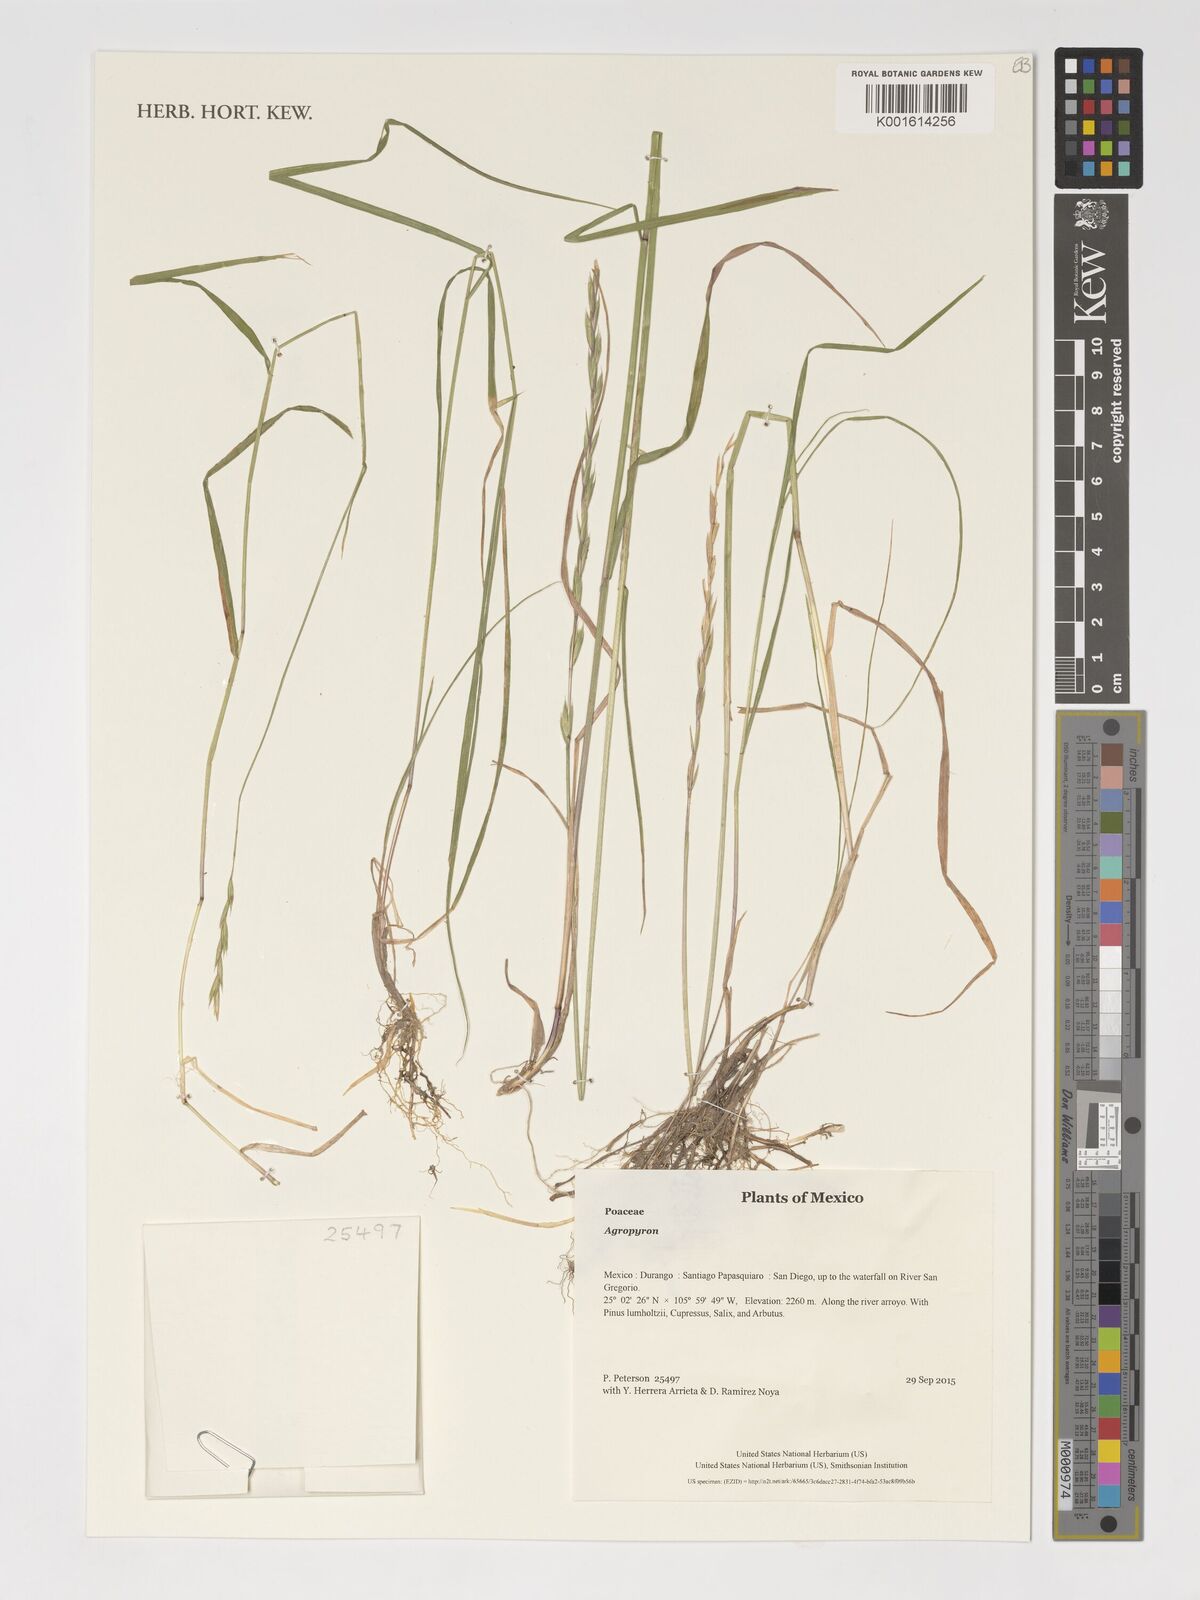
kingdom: Plantae
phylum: Tracheophyta
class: Liliopsida
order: Poales
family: Poaceae
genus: Agropyron
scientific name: Agropyron
